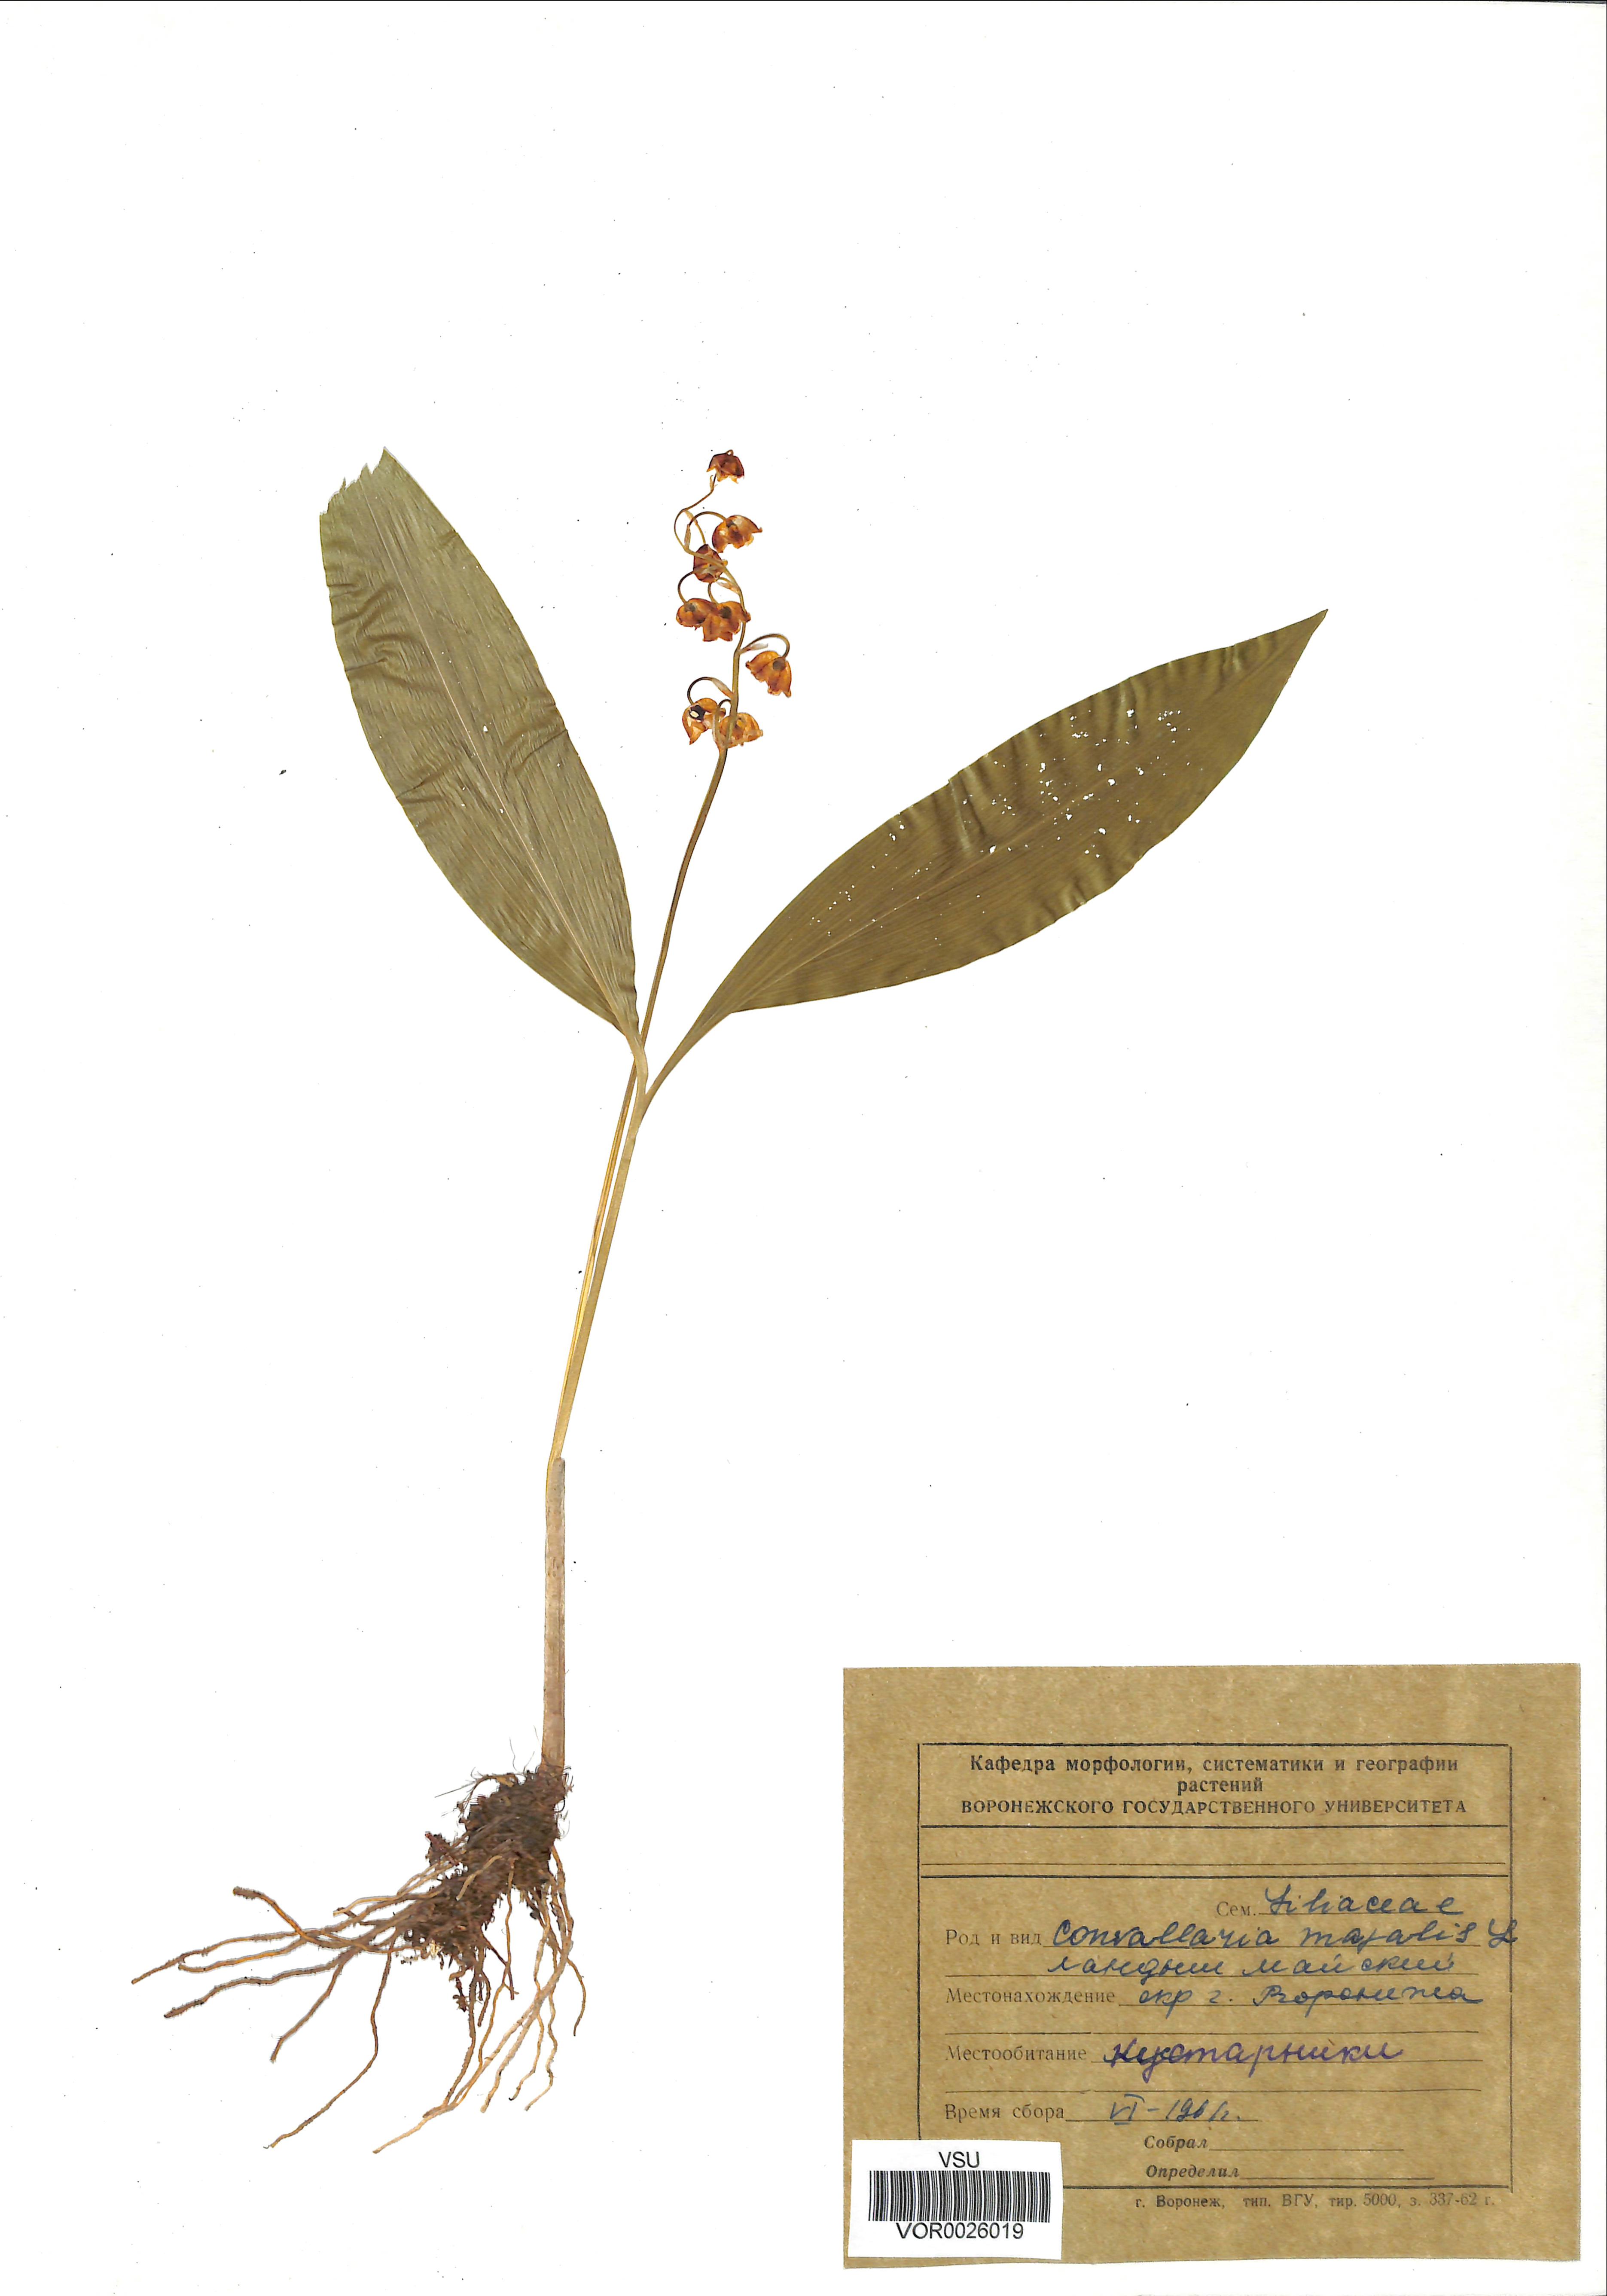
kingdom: Plantae
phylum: Tracheophyta
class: Liliopsida
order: Asparagales
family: Asparagaceae
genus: Convallaria
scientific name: Convallaria majalis
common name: Lily-of-the-valley
